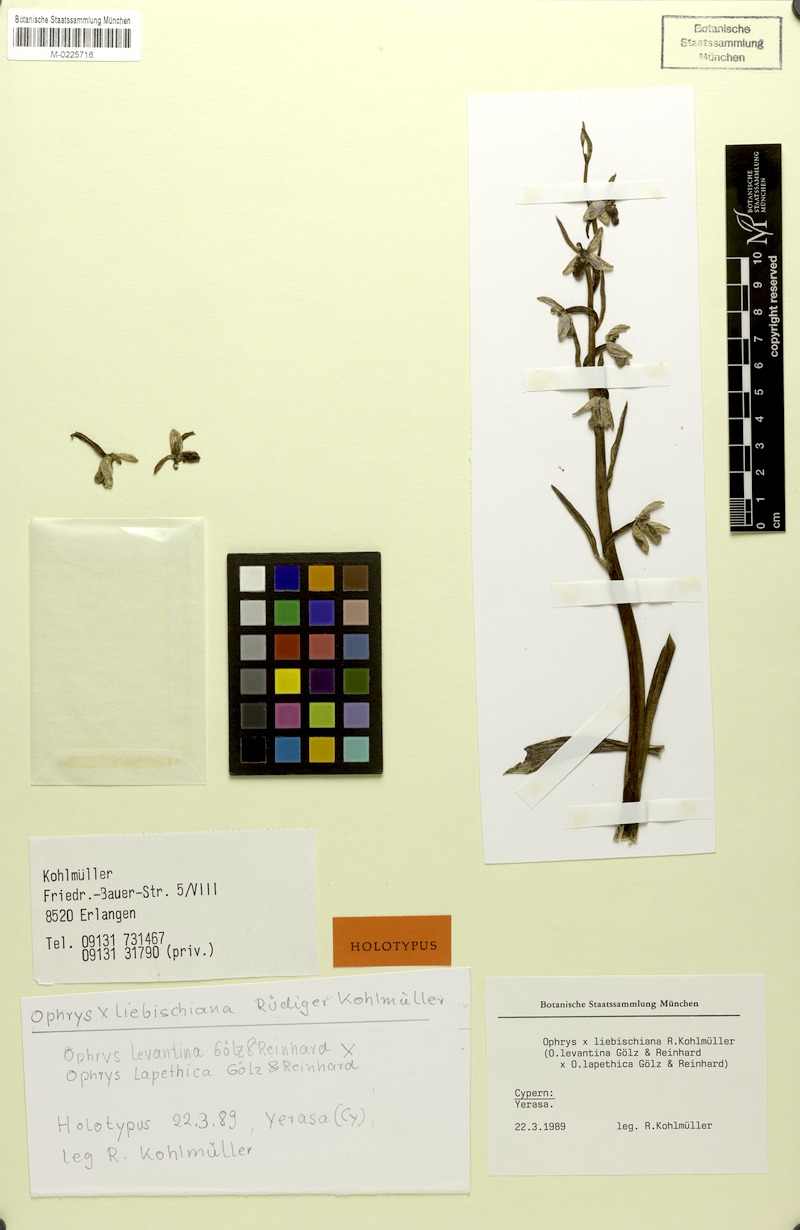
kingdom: Plantae
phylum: Tracheophyta
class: Liliopsida
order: Asparagales
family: Orchidaceae
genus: Ophrys
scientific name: Ophrys liebischiana
